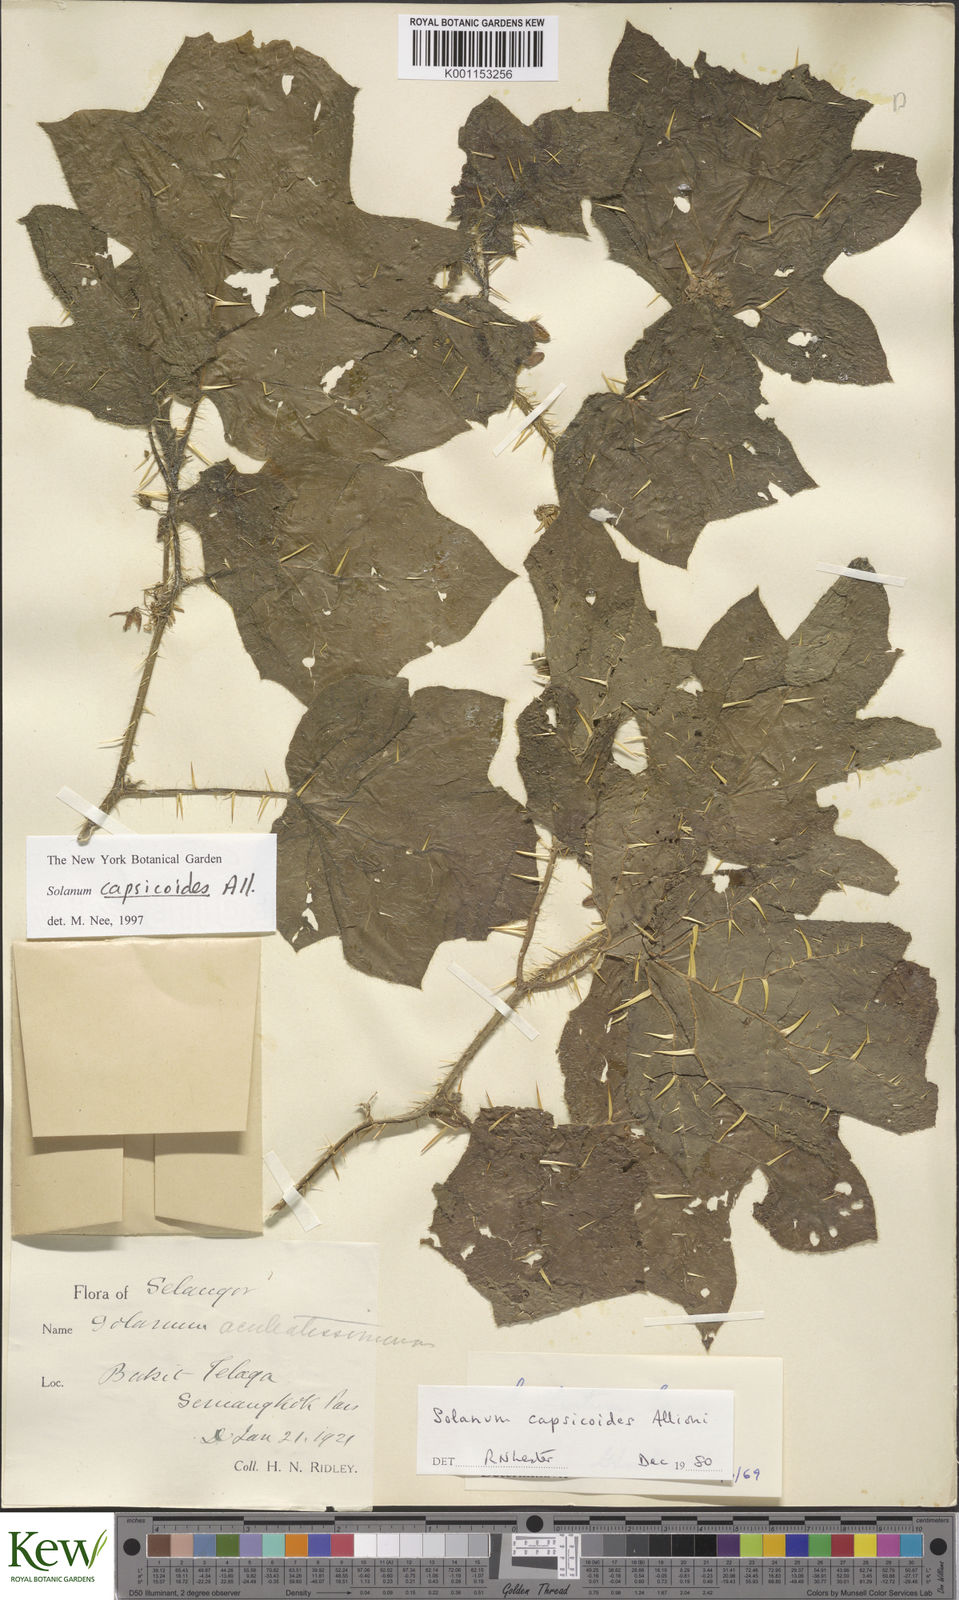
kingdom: Plantae
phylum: Tracheophyta
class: Magnoliopsida
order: Solanales
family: Solanaceae
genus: Solanum
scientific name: Solanum capsicoides
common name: Cockroach berry
